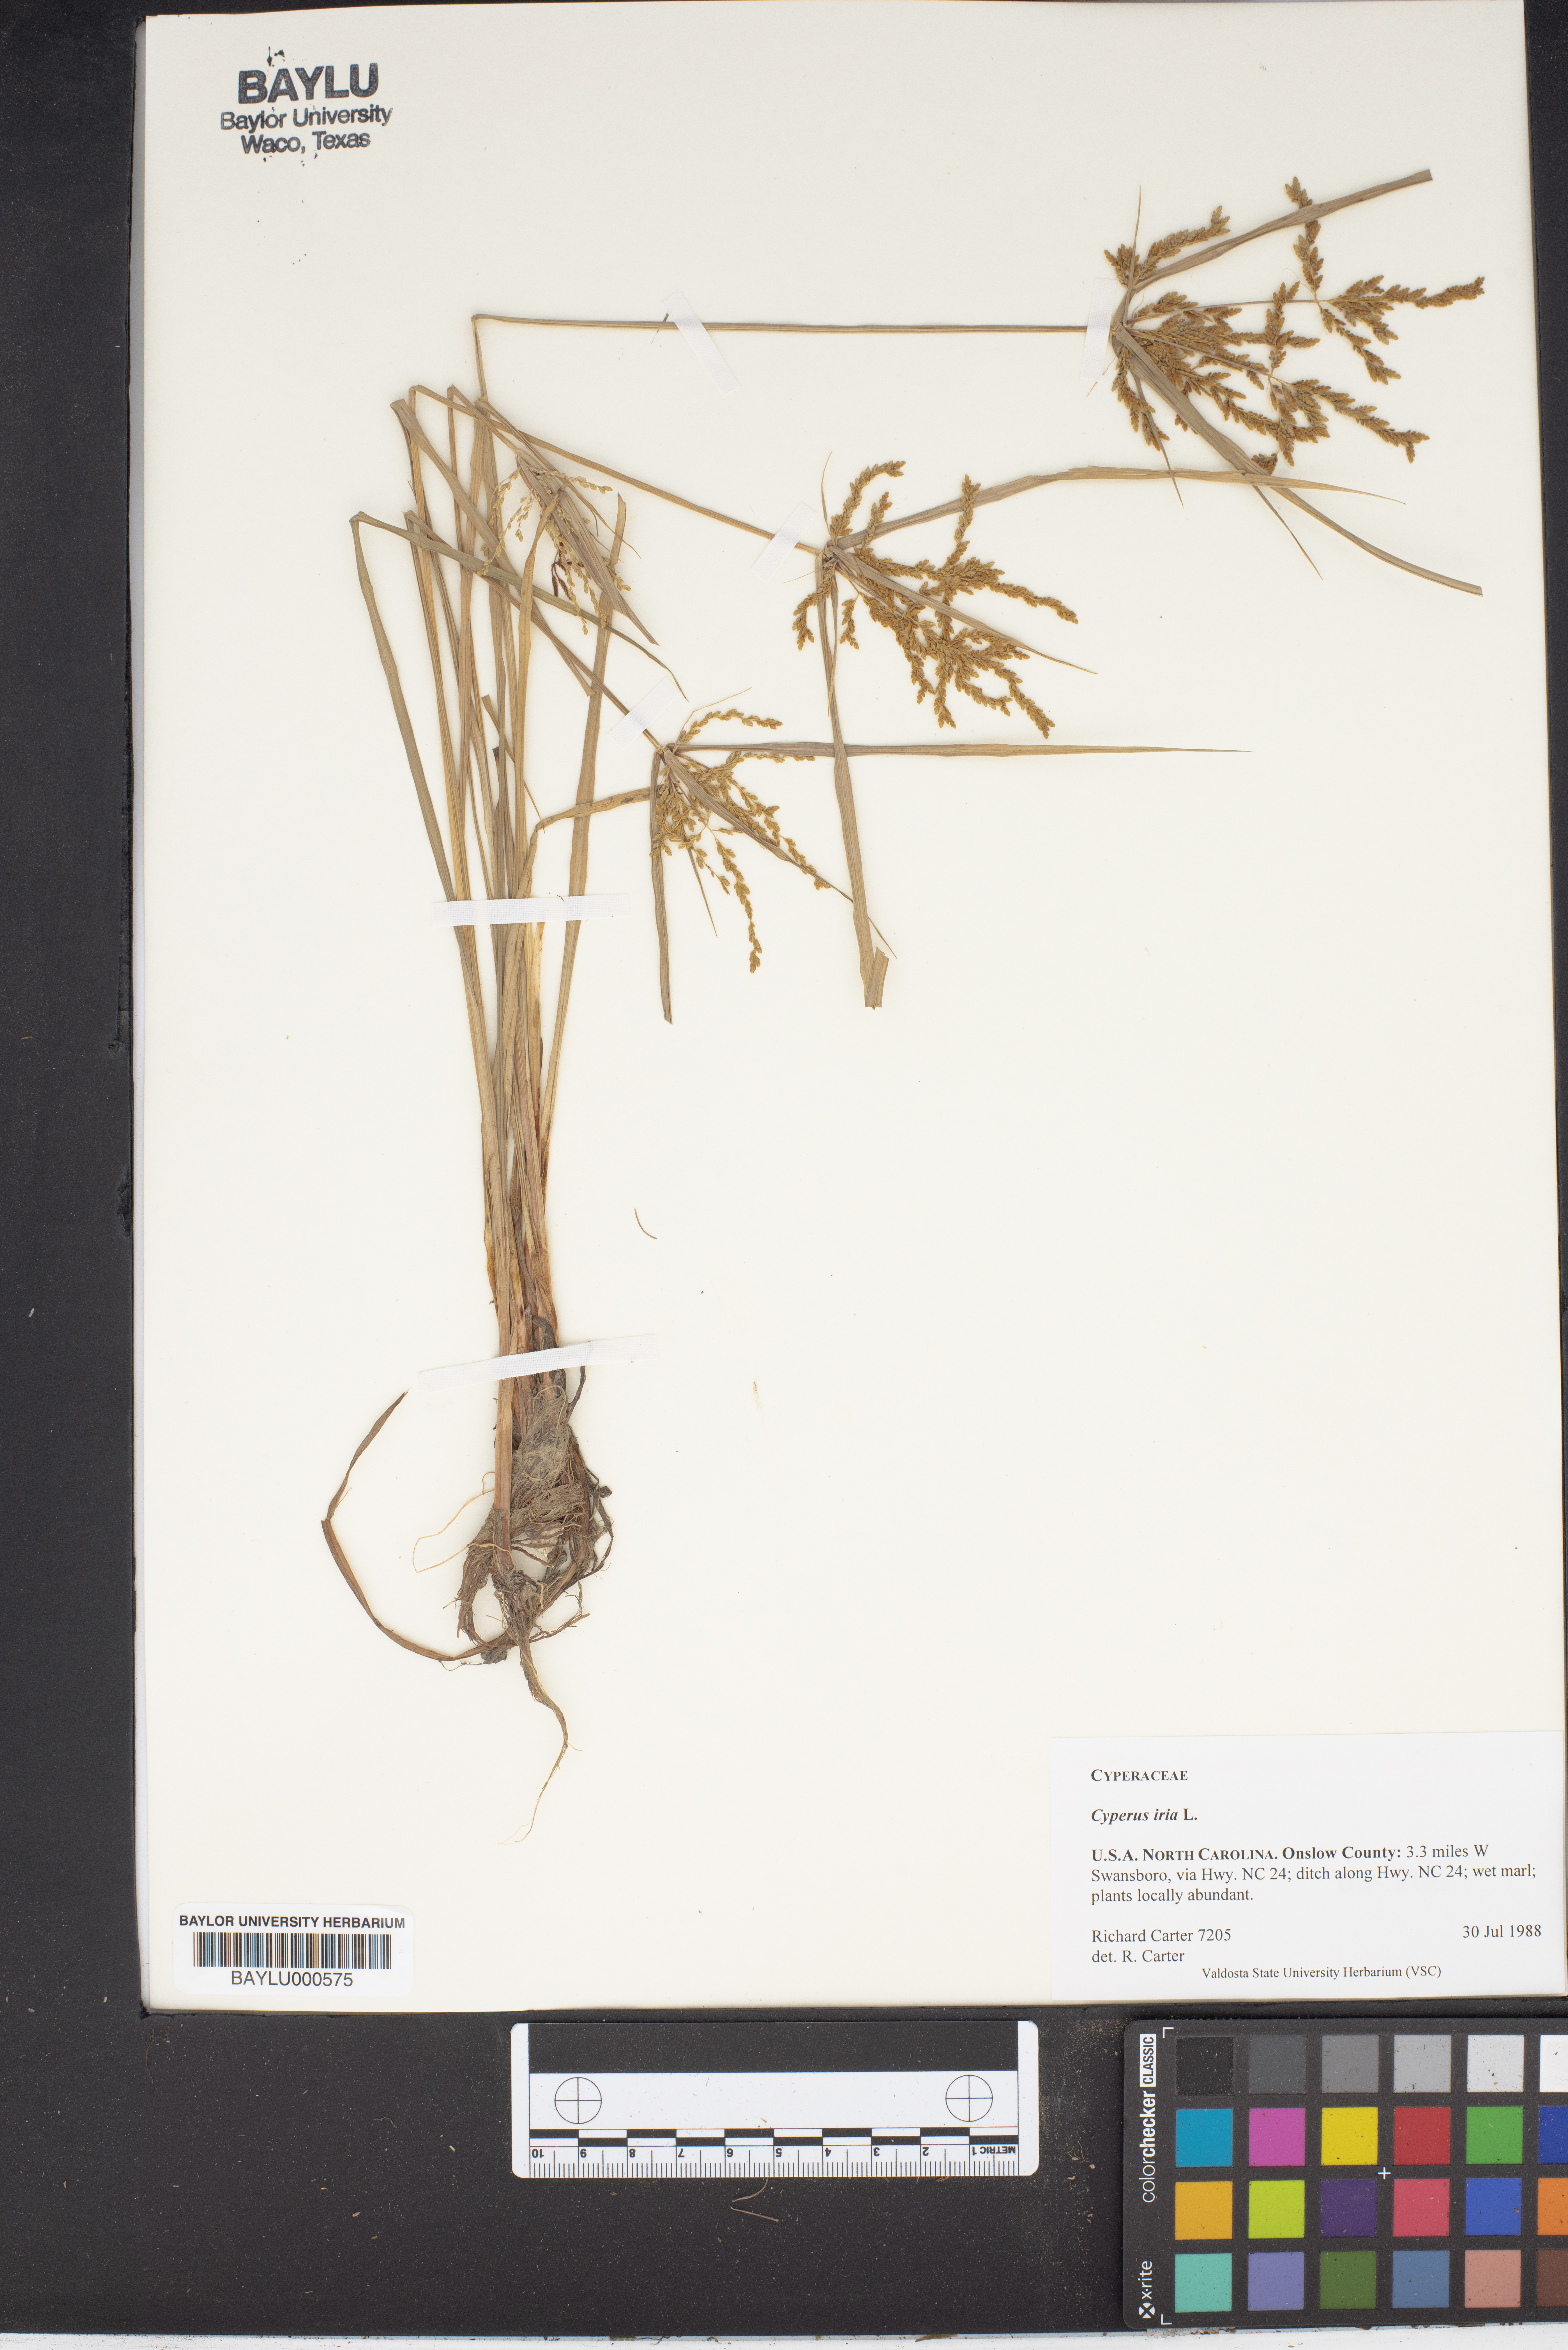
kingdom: Plantae
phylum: Tracheophyta
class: Liliopsida
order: Poales
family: Cyperaceae
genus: Cyperus
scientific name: Cyperus iria
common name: Ricefield flatsedge
